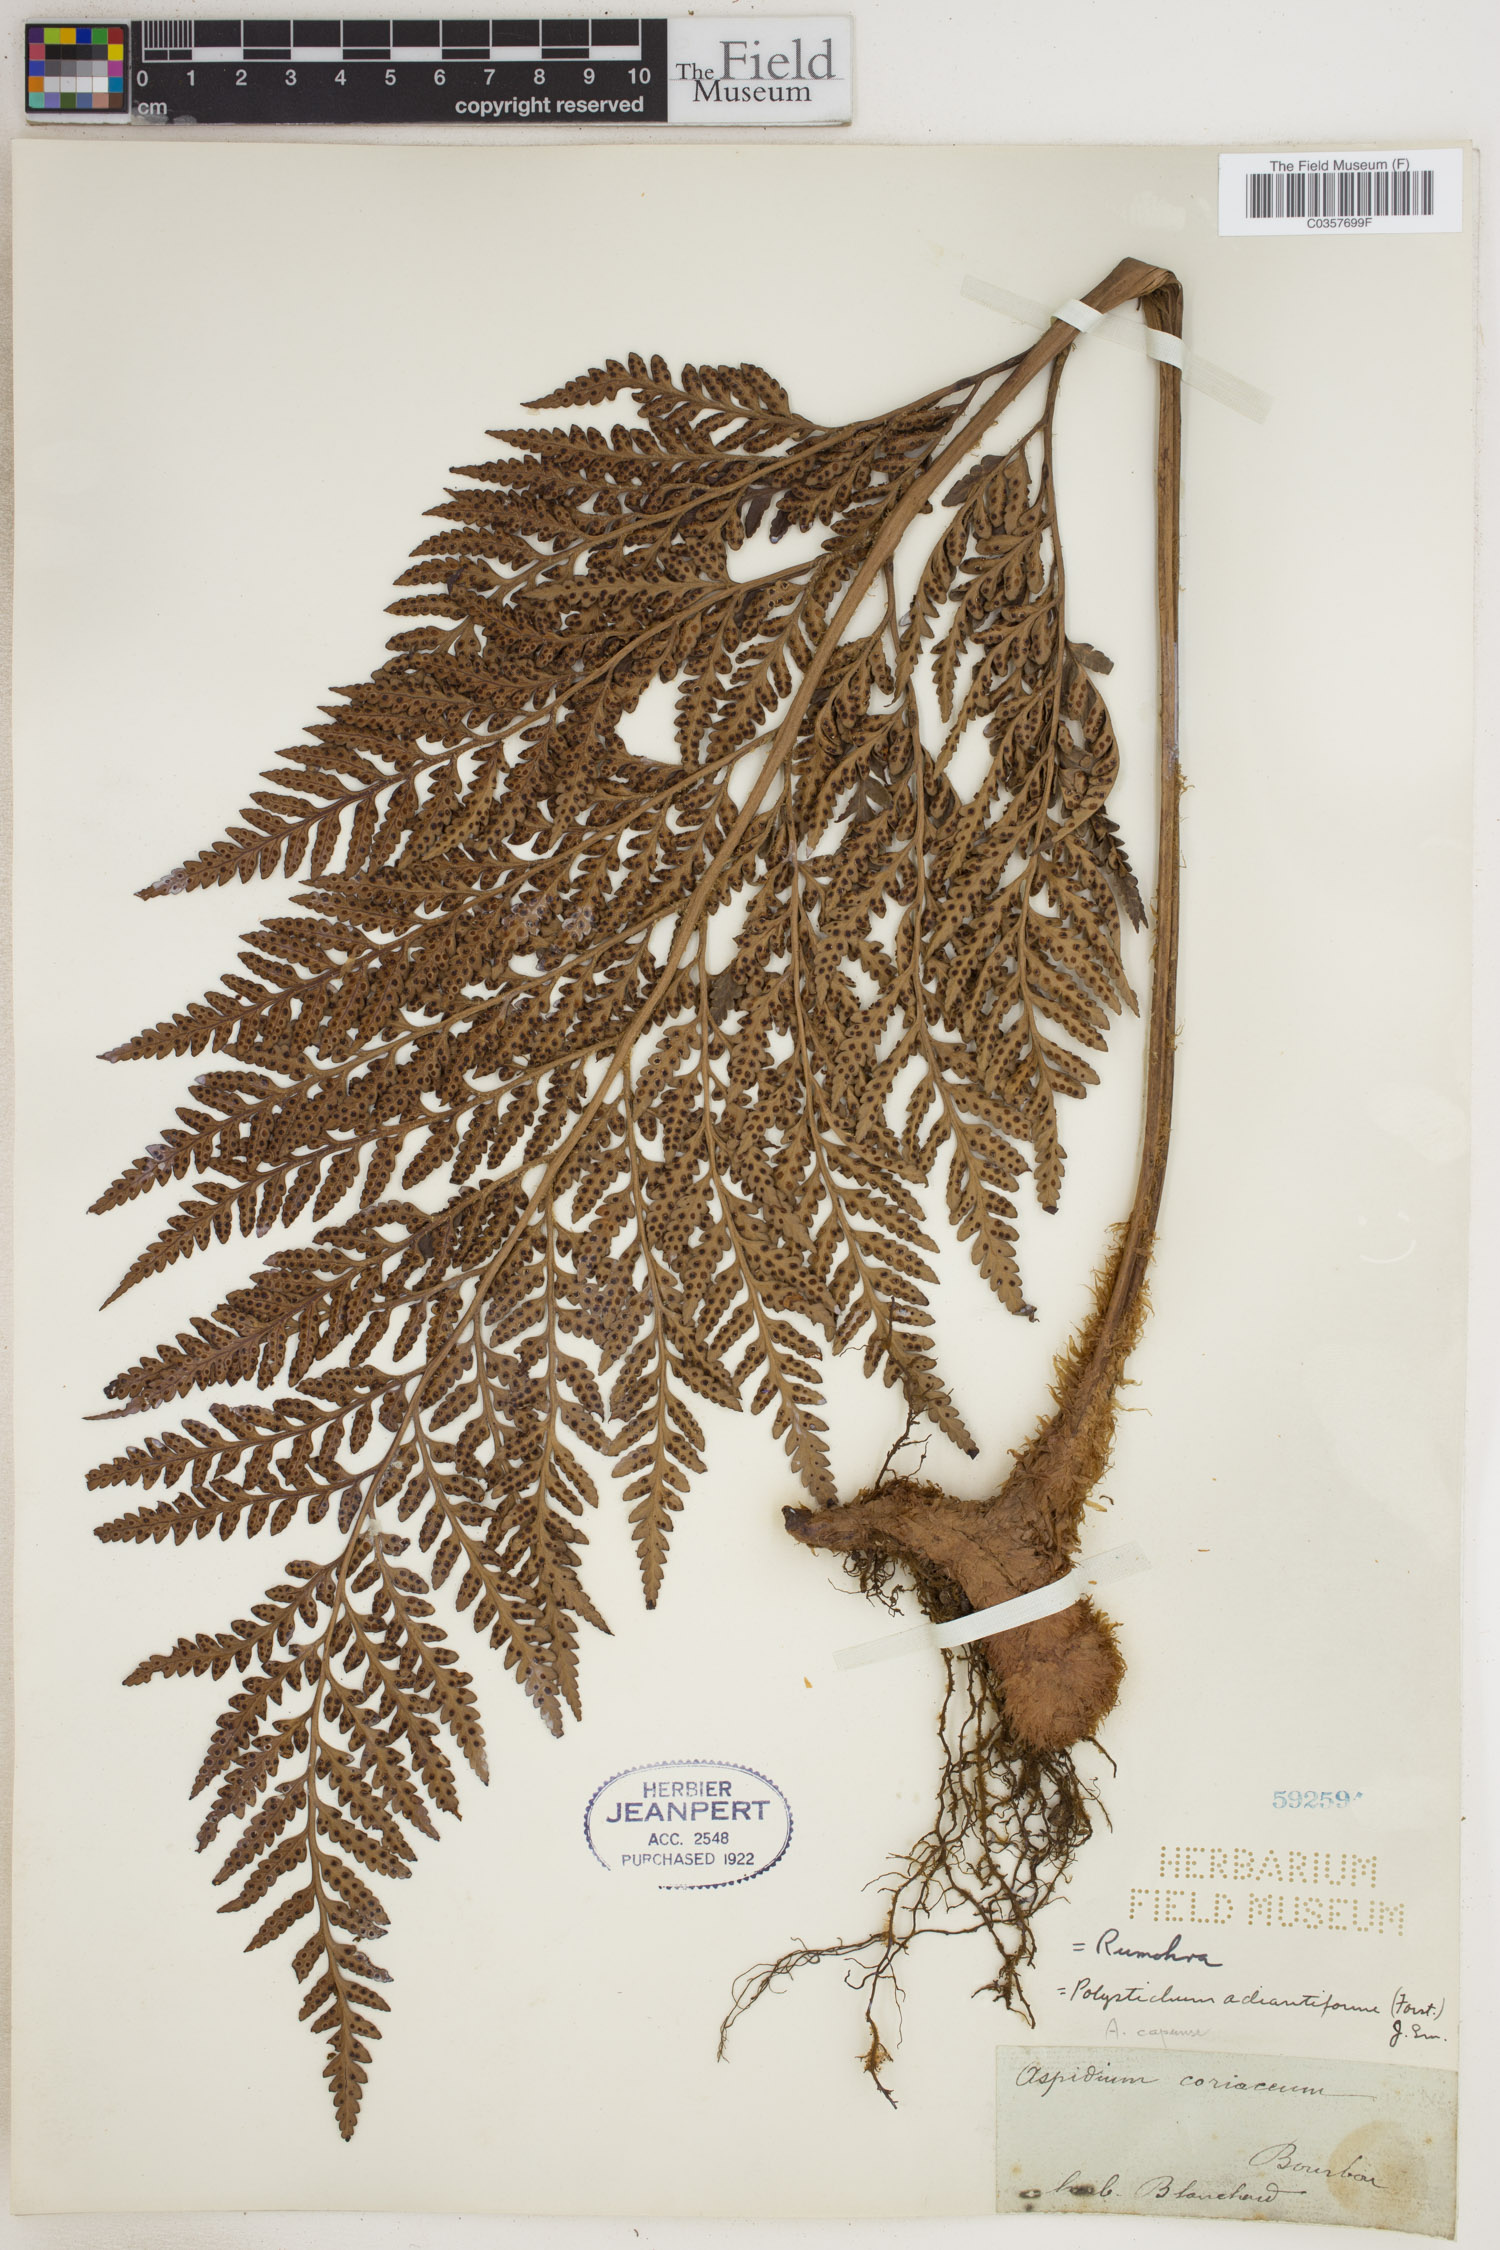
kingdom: Plantae
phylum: Tracheophyta
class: Polypodiopsida
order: Polypodiales
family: Dryopteridaceae
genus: Rumohra
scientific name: Rumohra adiantiformis
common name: Leather fern
